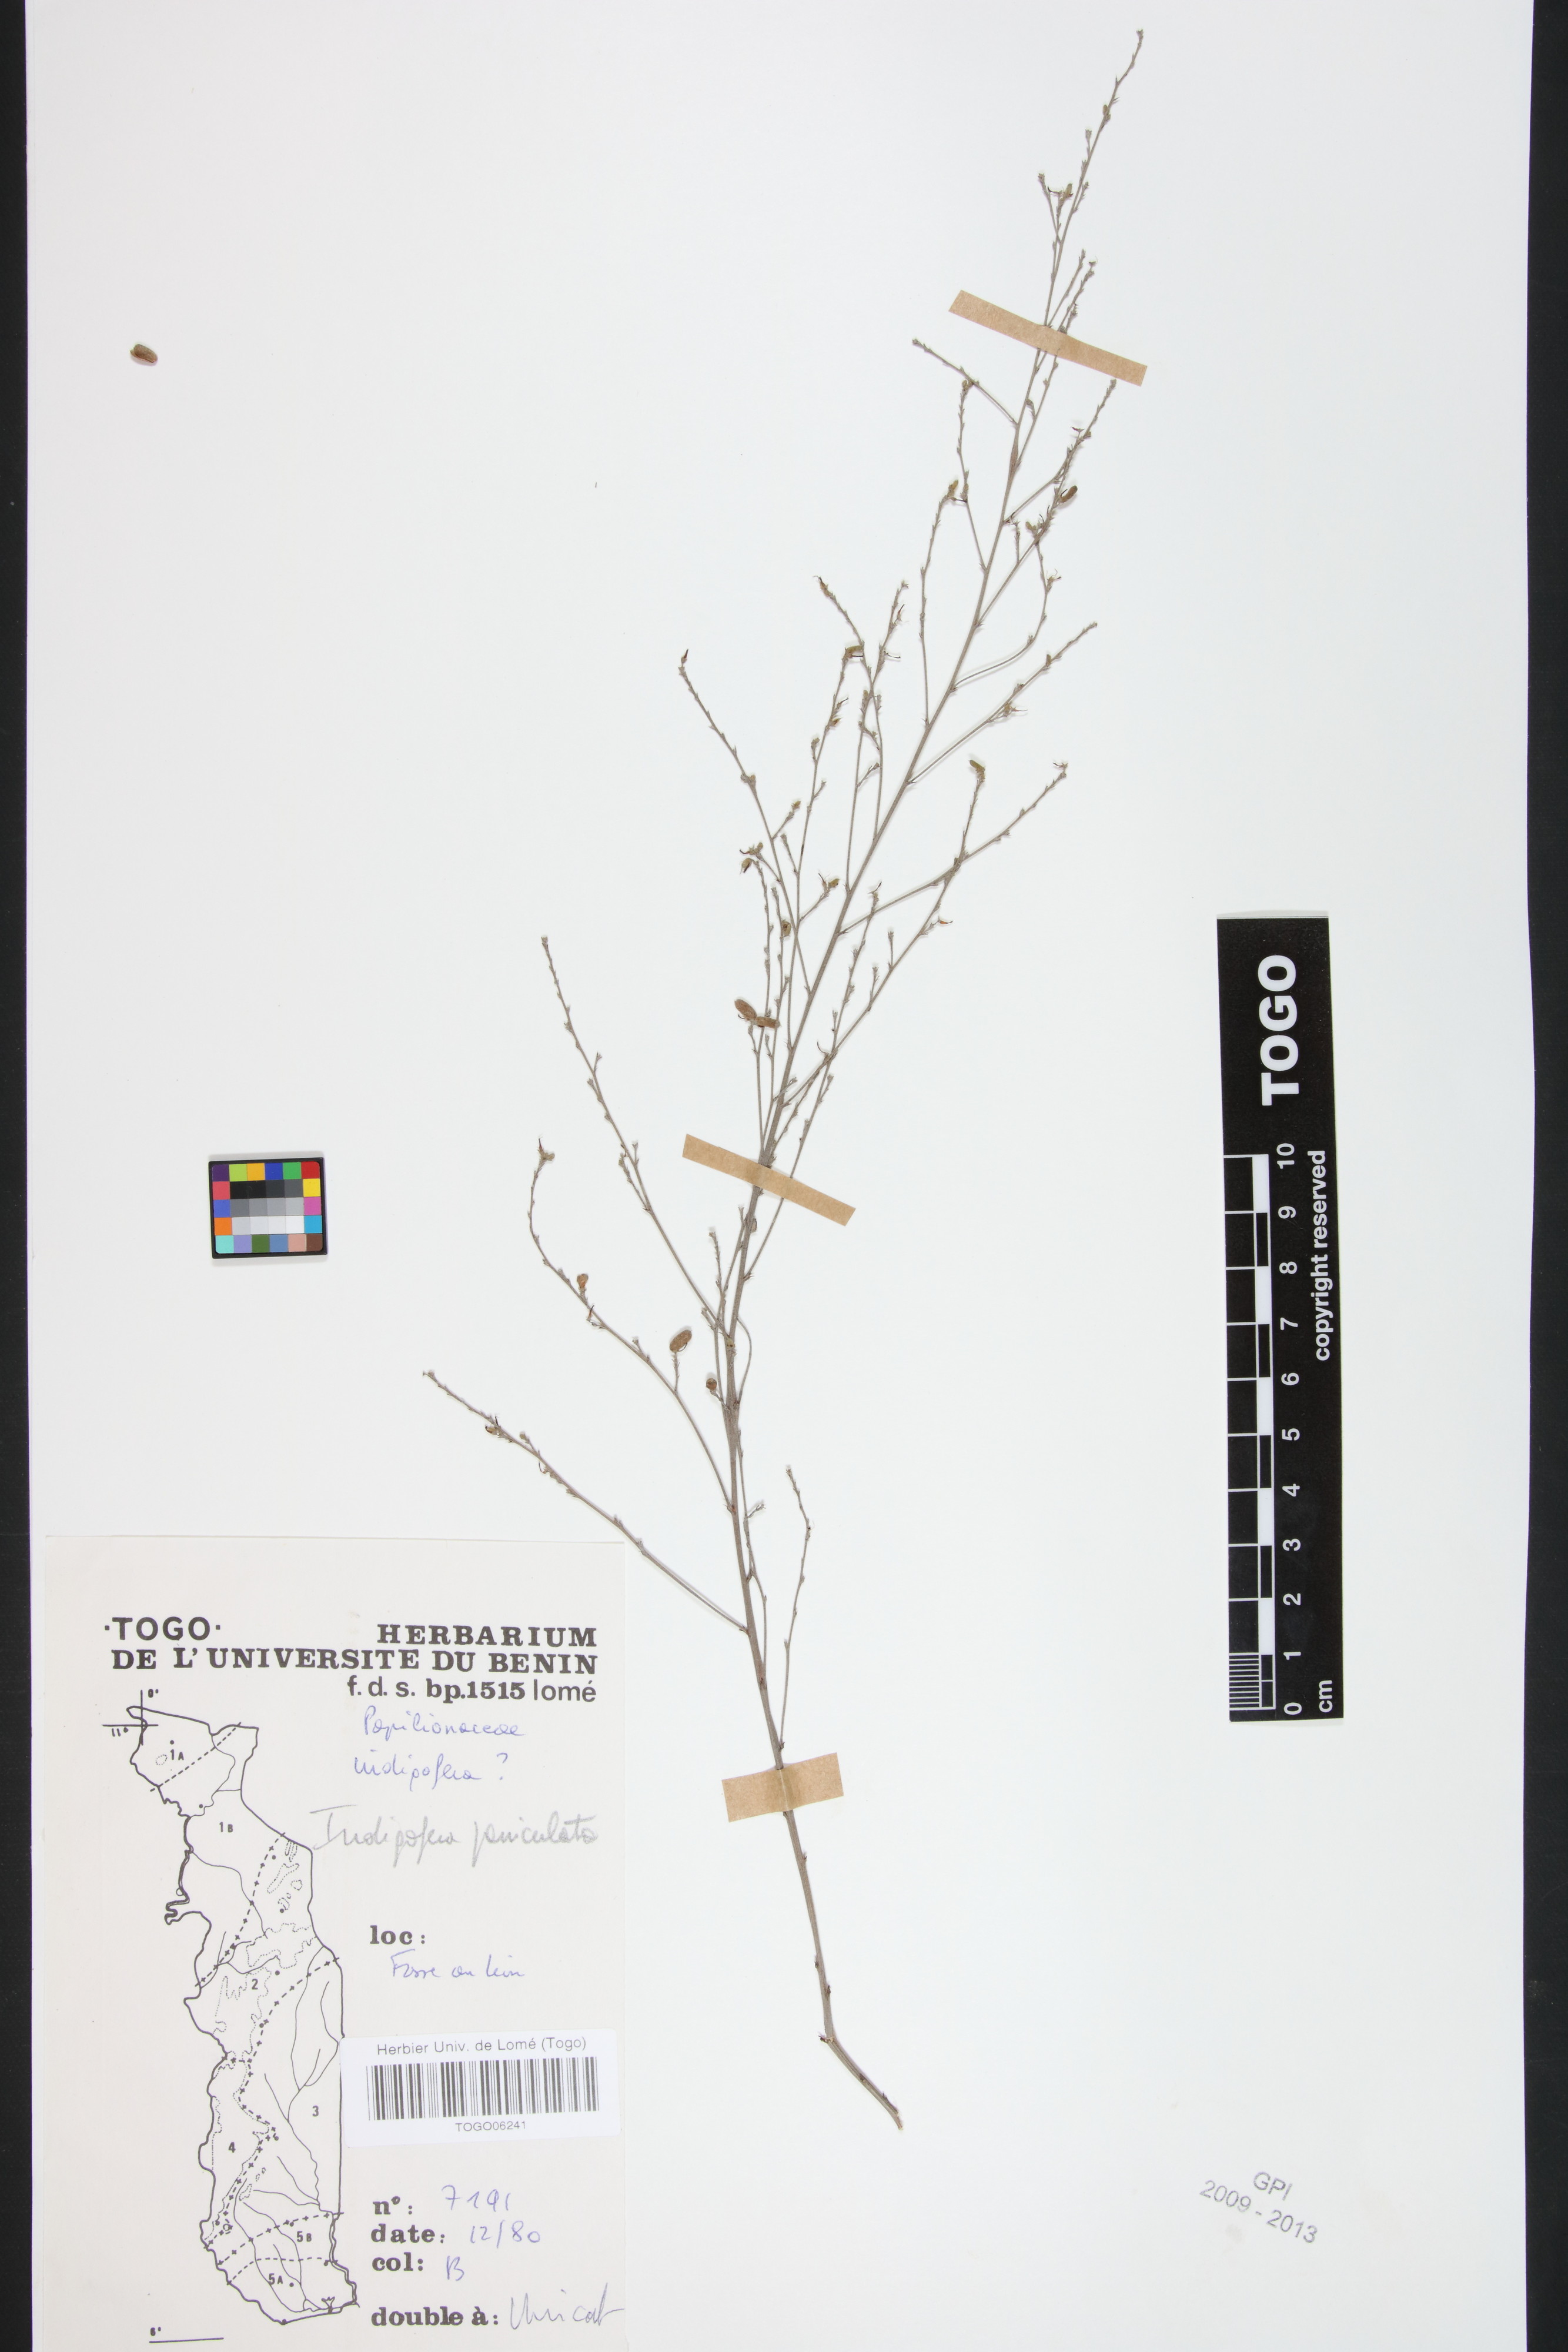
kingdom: Plantae
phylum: Tracheophyta
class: Magnoliopsida
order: Fabales
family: Fabaceae
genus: Indigofera
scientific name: Indigofera paniculata
